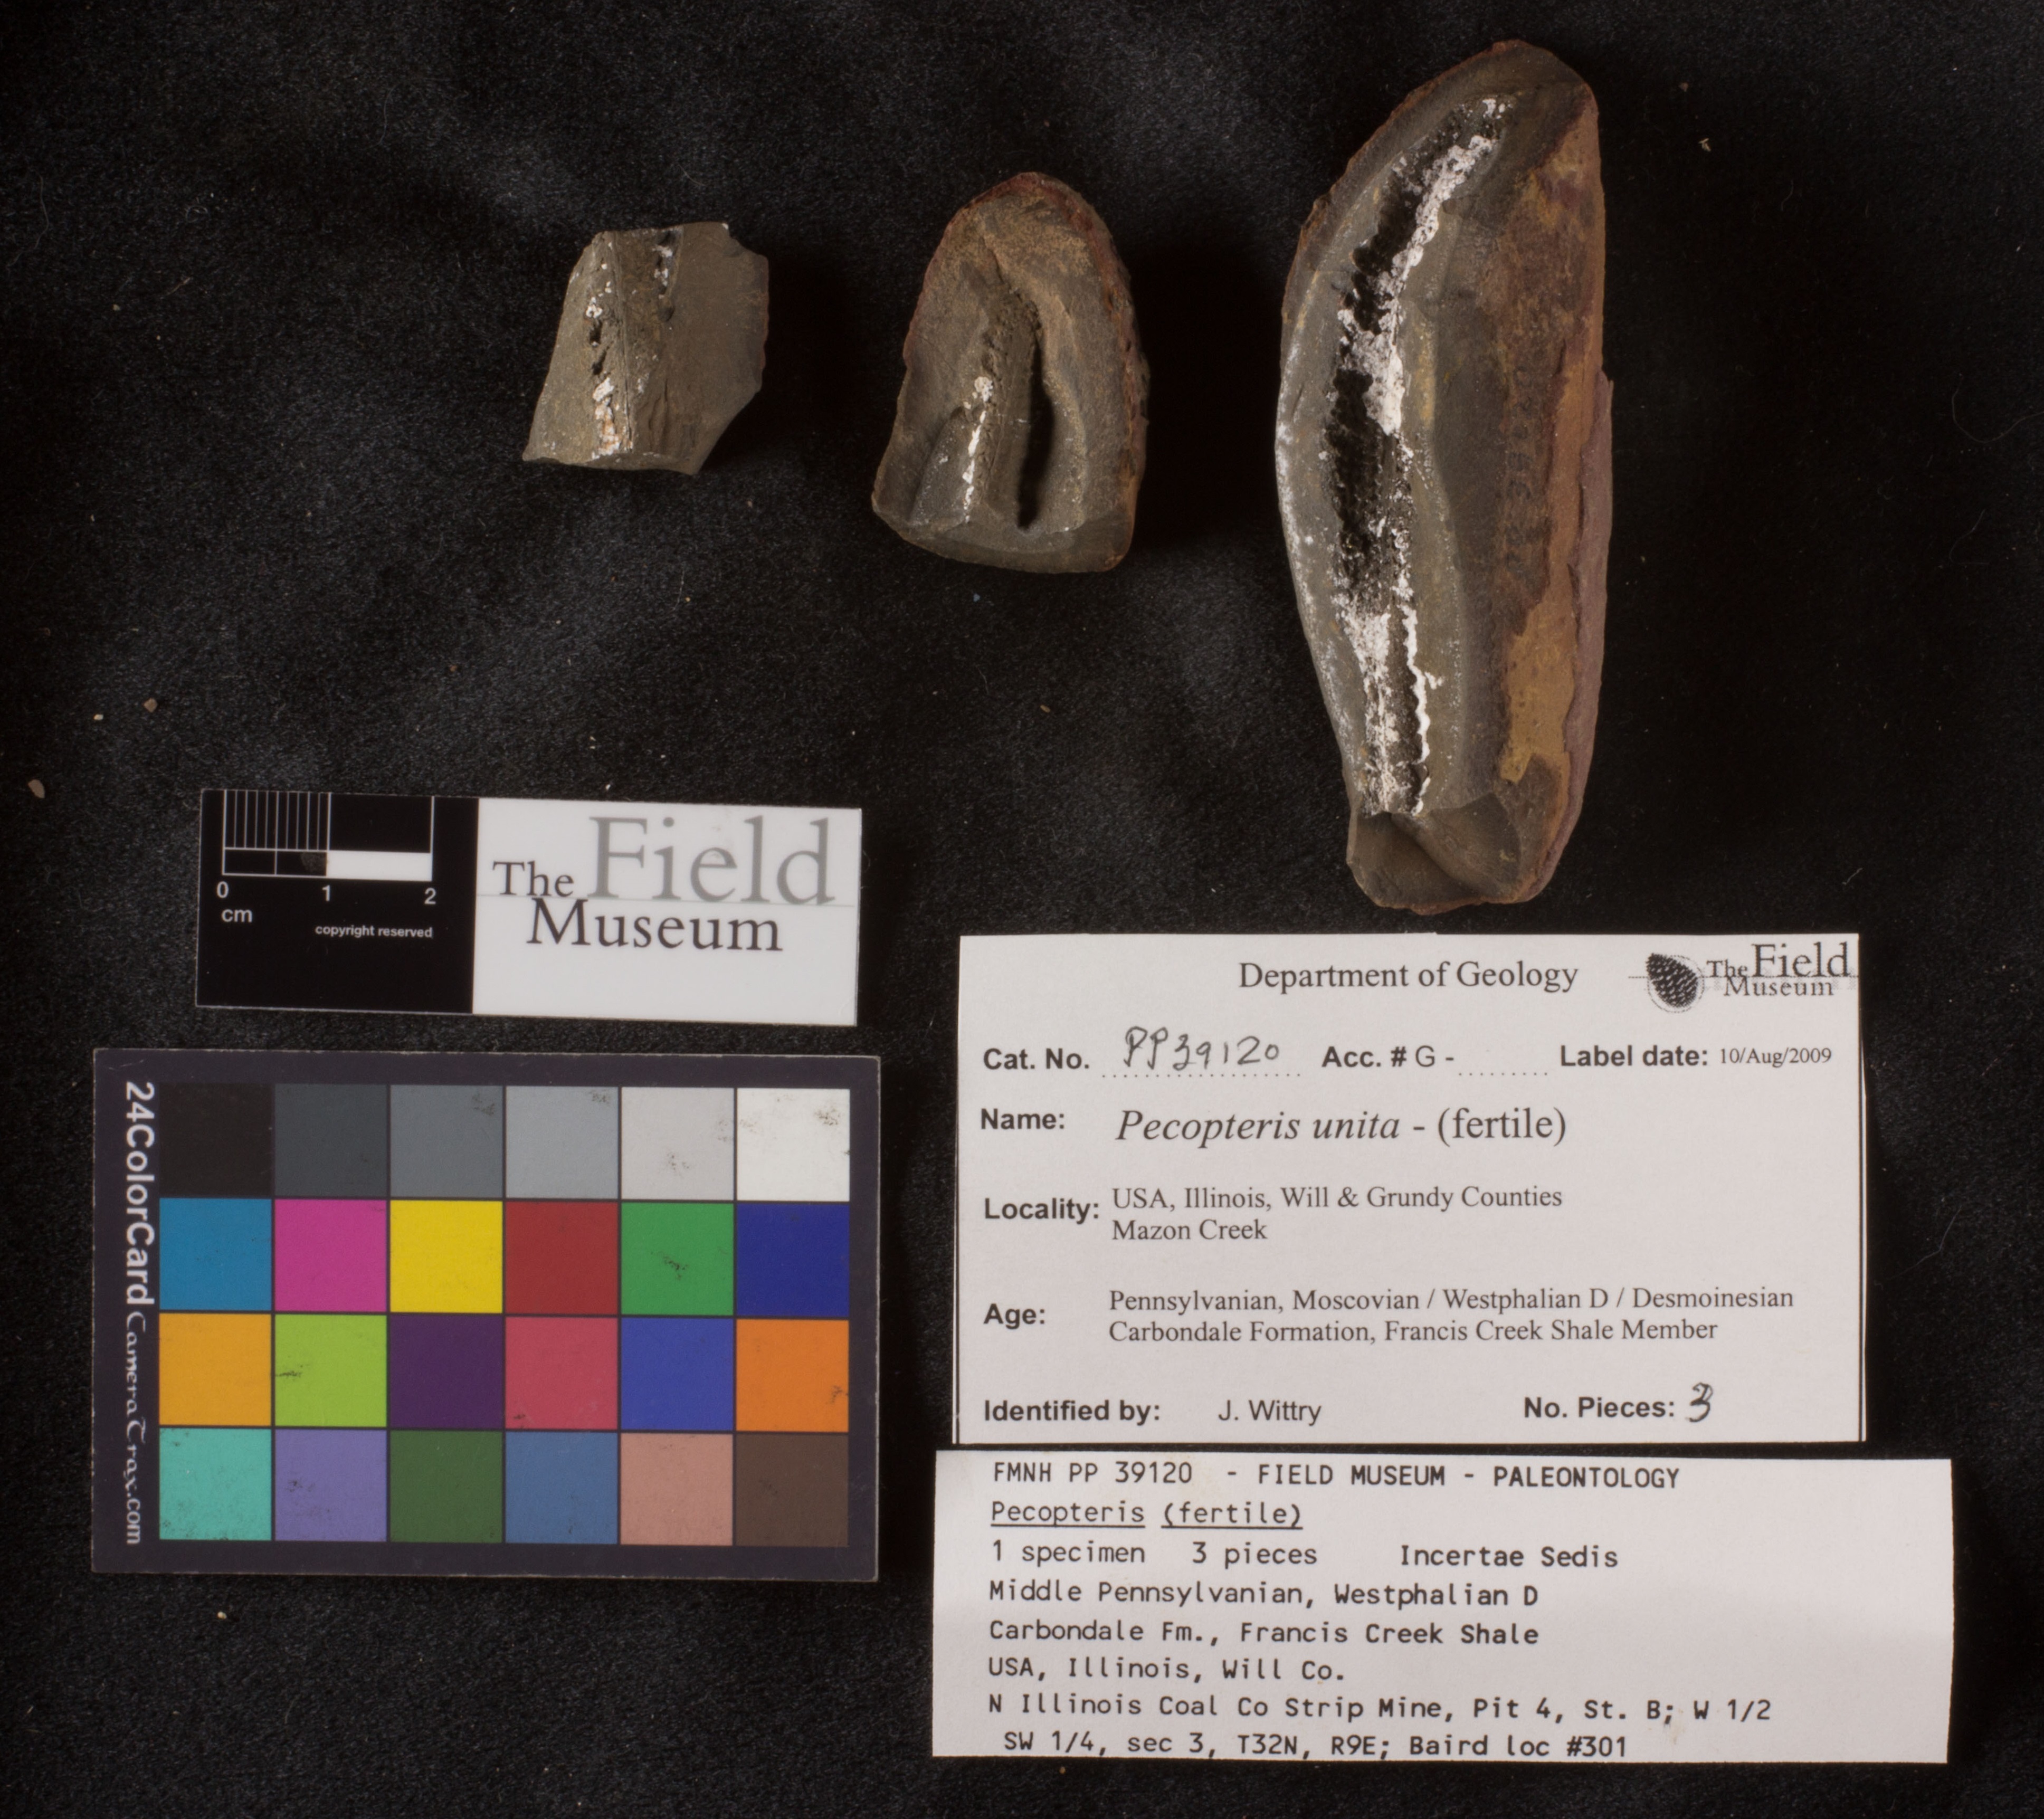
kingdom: Plantae
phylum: Tracheophyta
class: Polypodiopsida
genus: Diplazites
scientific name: Diplazites
